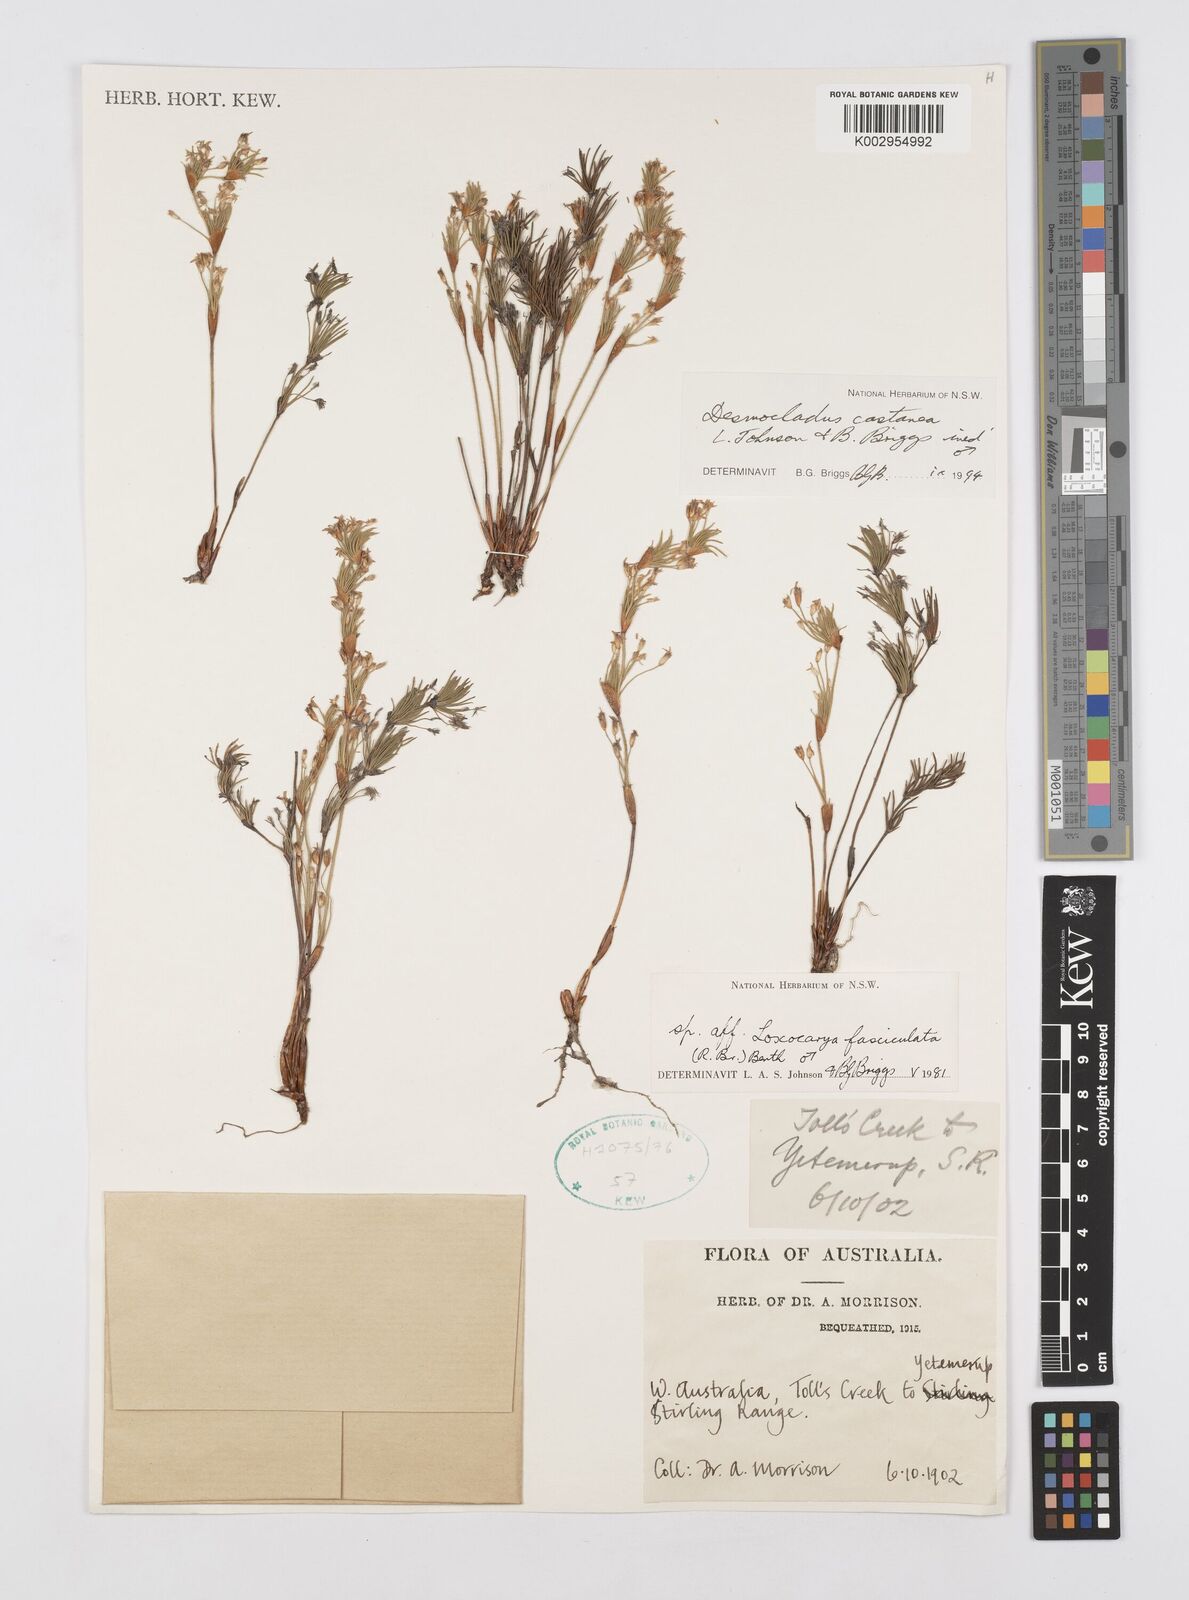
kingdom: Plantae
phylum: Tracheophyta
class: Liliopsida
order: Poales
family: Restionaceae
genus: Desmocladus
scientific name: Desmocladus castaneus
